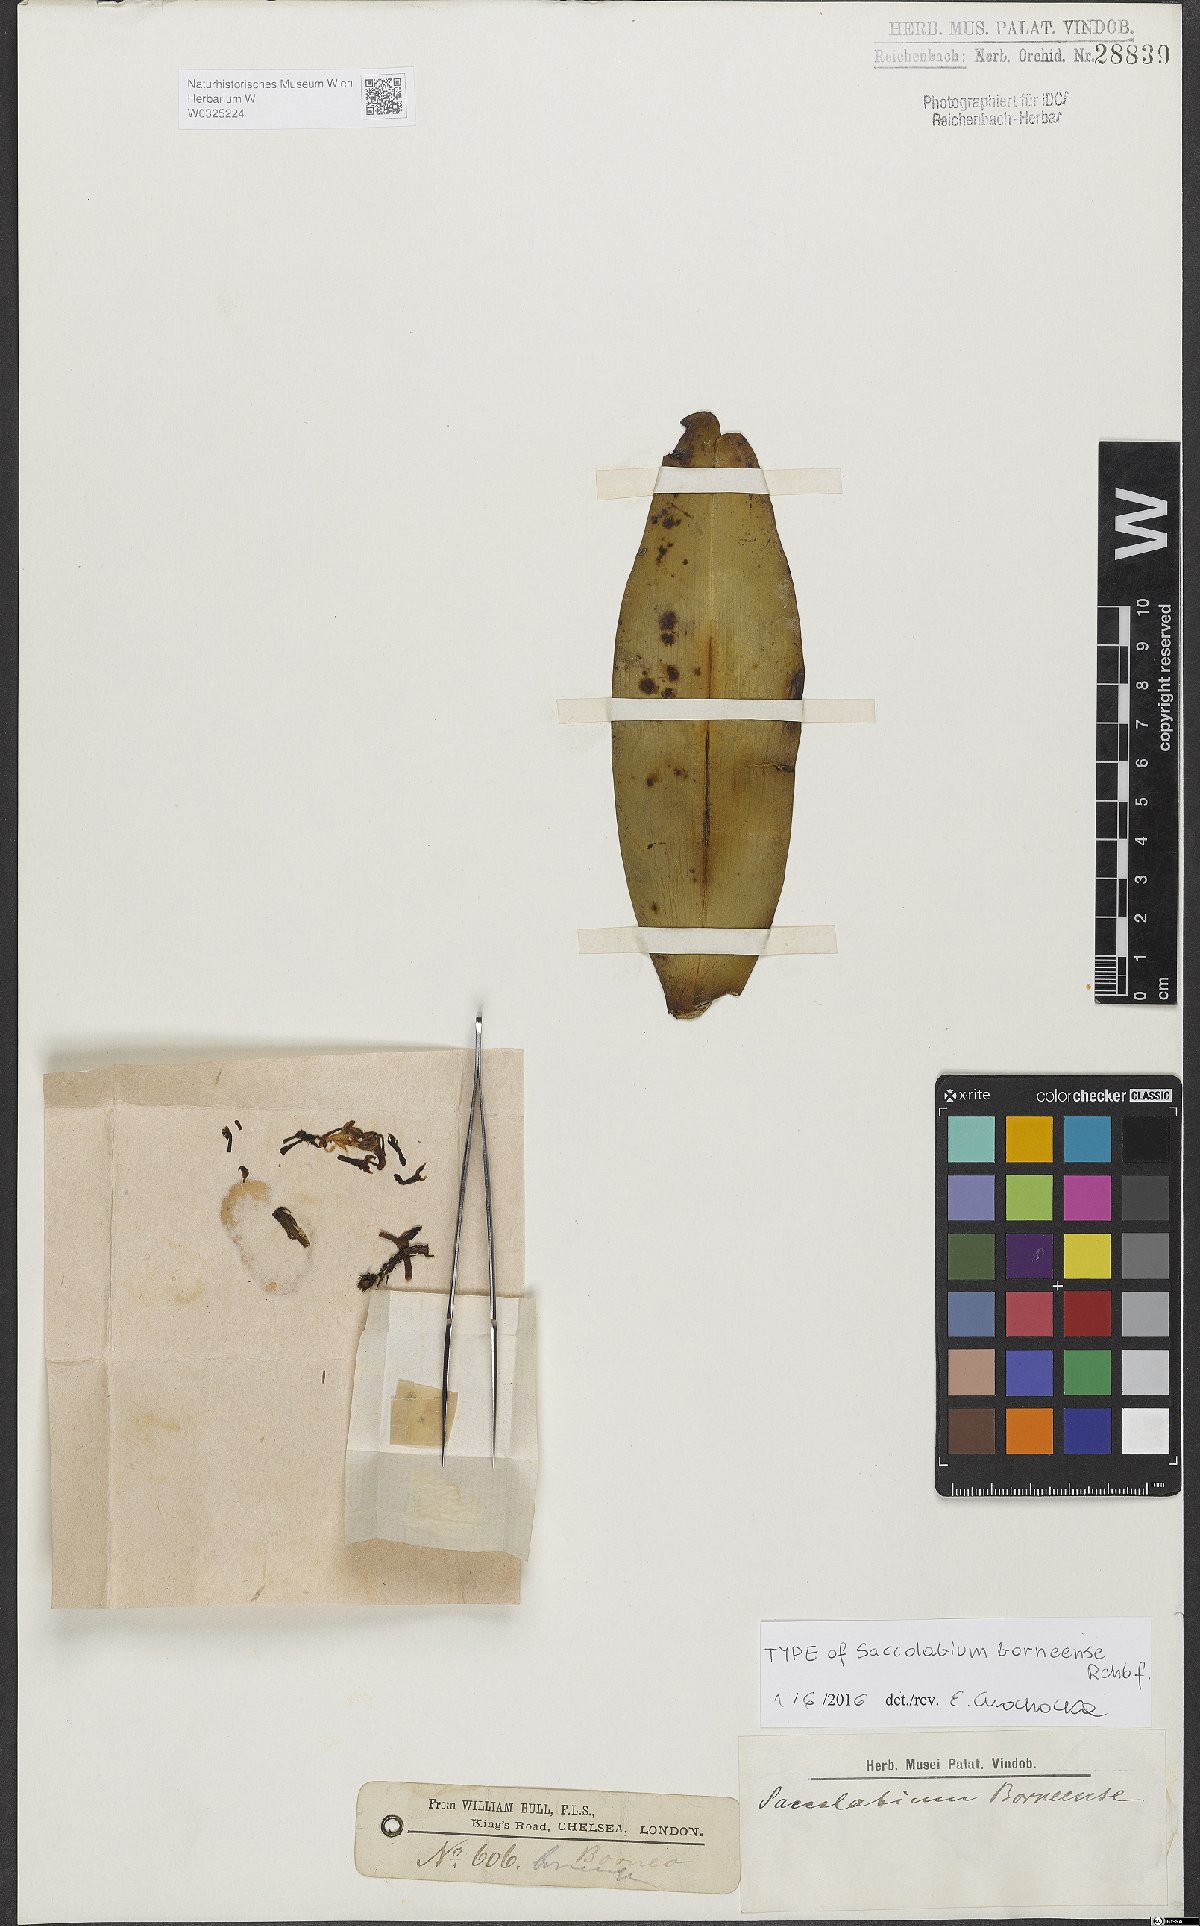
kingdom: Plantae
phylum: Tracheophyta
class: Liliopsida
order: Asparagales
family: Orchidaceae
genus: Robiquetia
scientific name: Robiquetia spathulata
